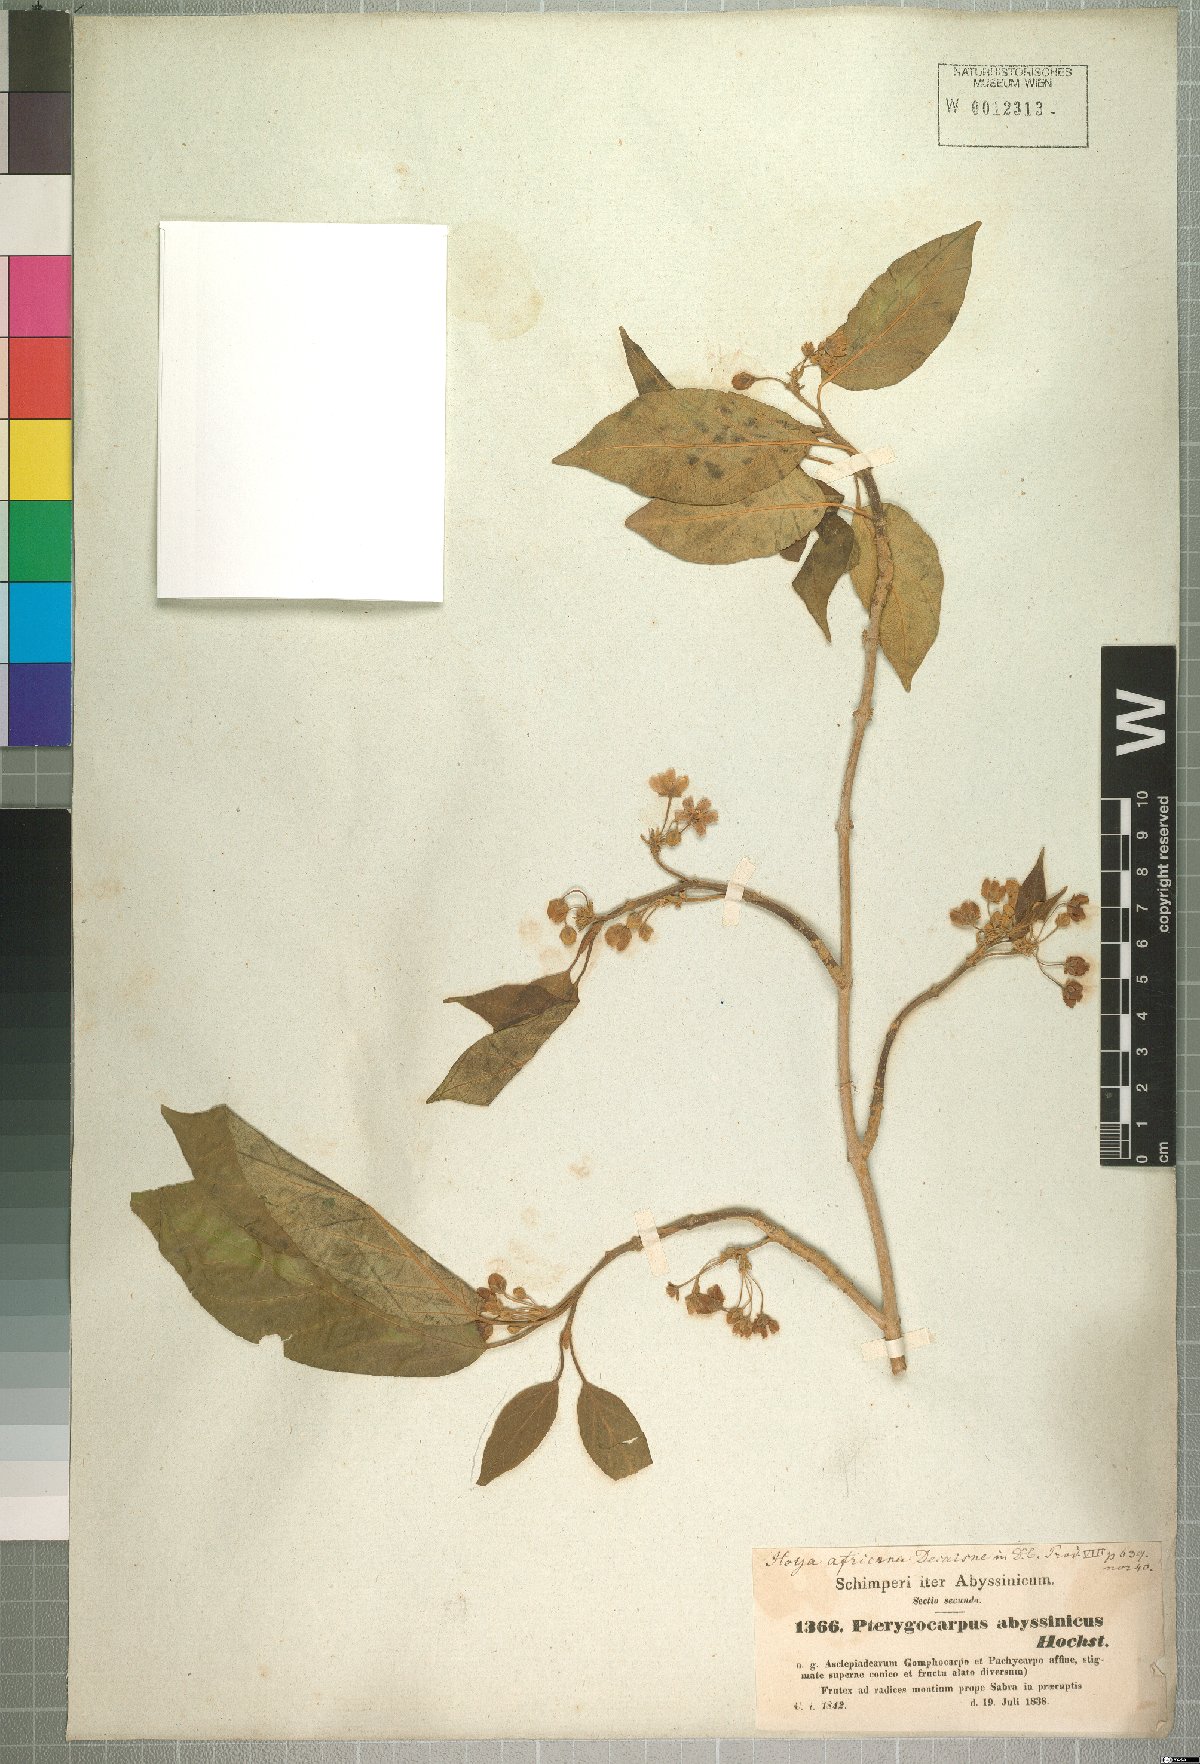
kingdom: Plantae
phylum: Tracheophyta
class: Magnoliopsida
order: Gentianales
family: Apocynaceae
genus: Stephanotis
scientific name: Stephanotis abyssinica
